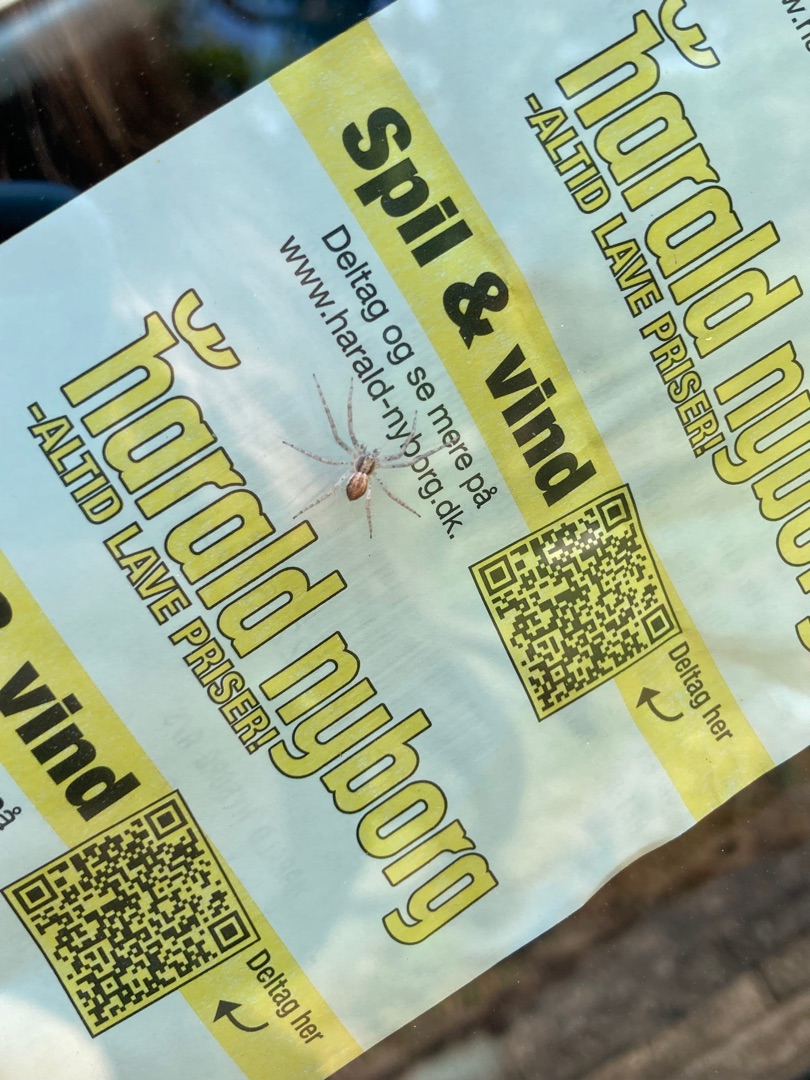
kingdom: Animalia
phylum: Arthropoda
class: Arachnida
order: Araneae
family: Philodromidae
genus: Philodromus
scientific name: Philodromus dispar
